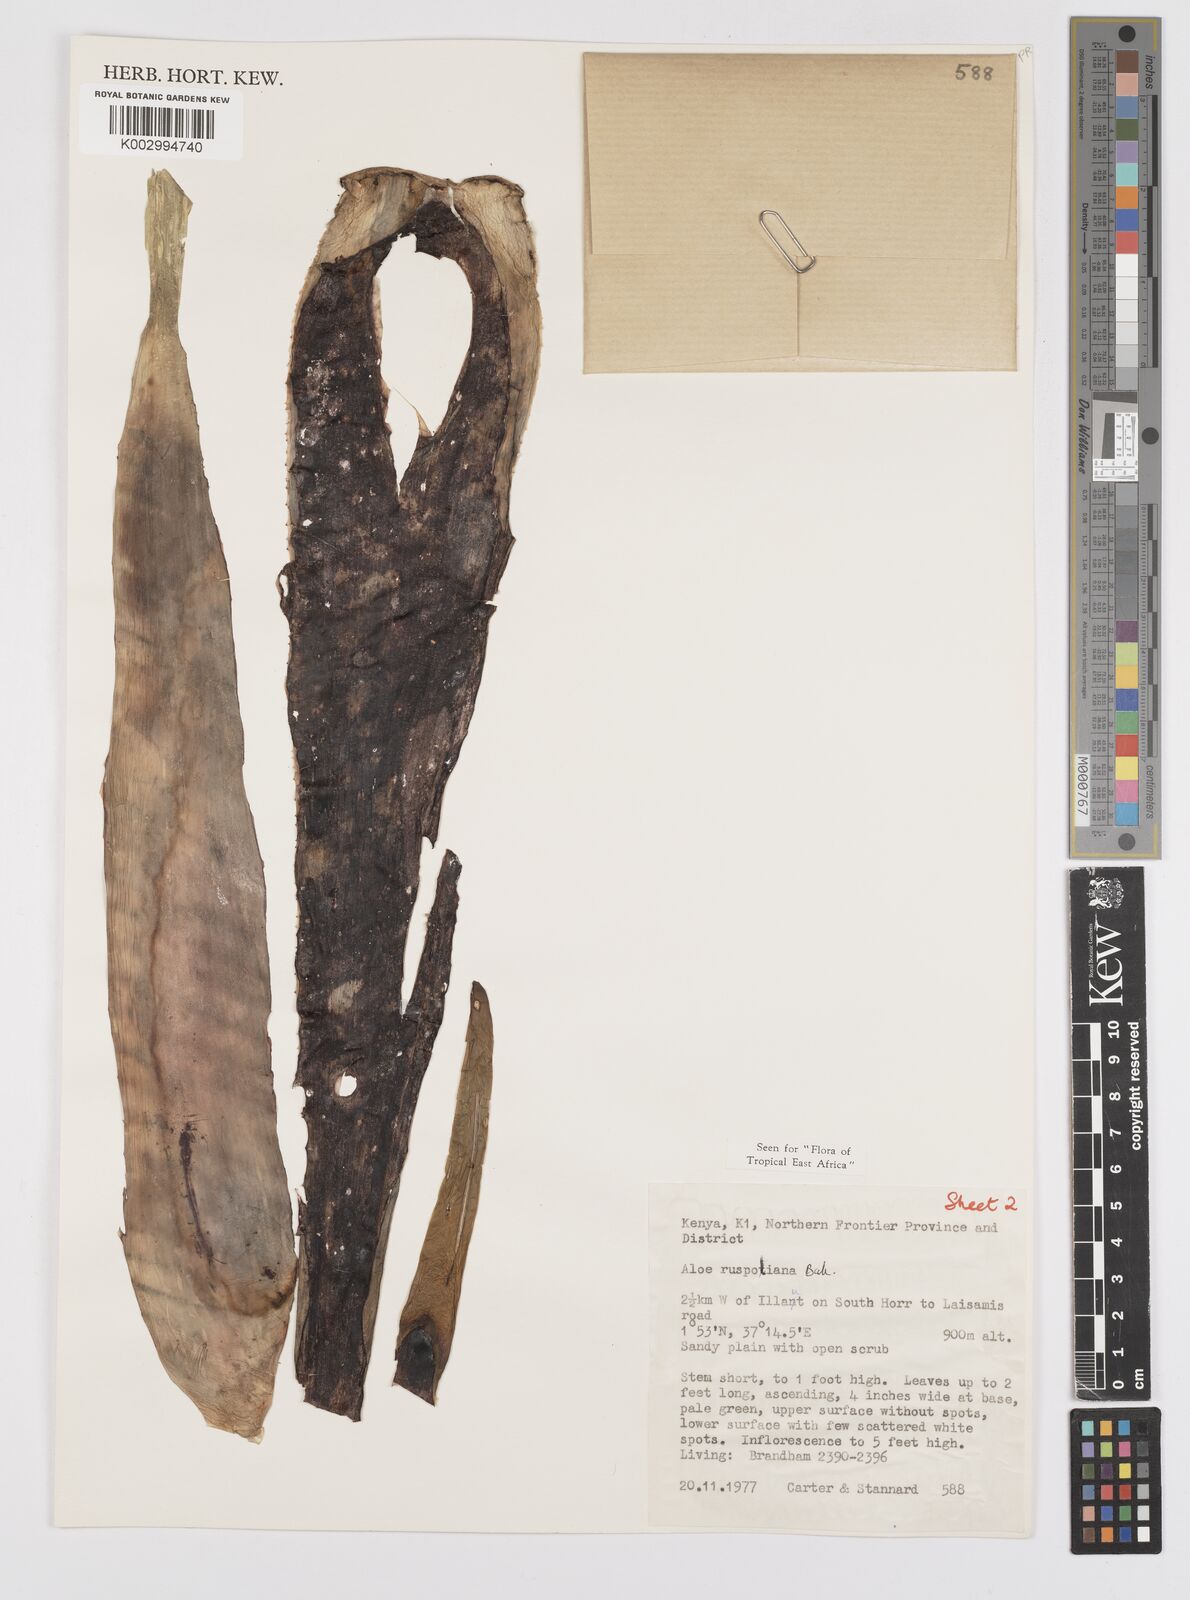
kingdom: Plantae
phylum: Tracheophyta
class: Liliopsida
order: Asparagales
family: Asphodelaceae
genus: Aloe
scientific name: Aloe ruspoliana
